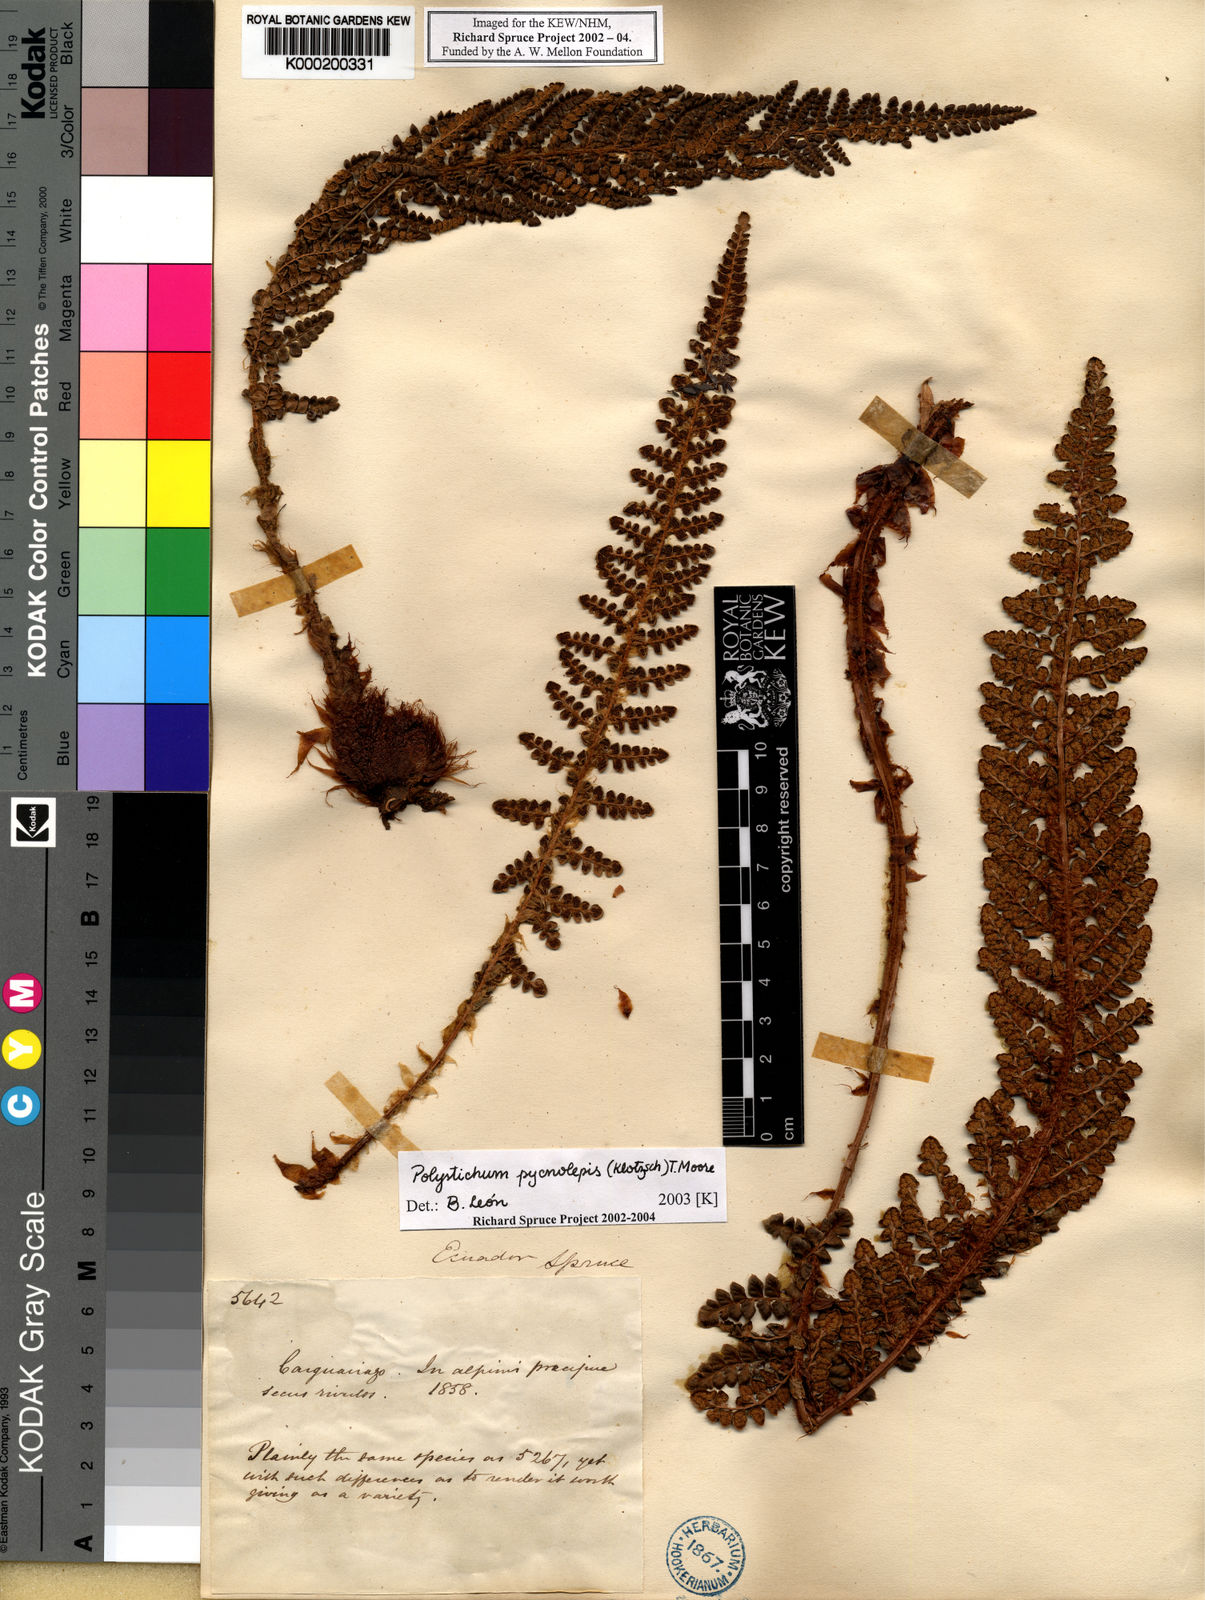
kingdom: Plantae
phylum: Tracheophyta
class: Polypodiopsida
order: Polypodiales
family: Dryopteridaceae
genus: Polystichum
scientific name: Polystichum pycnolepis
